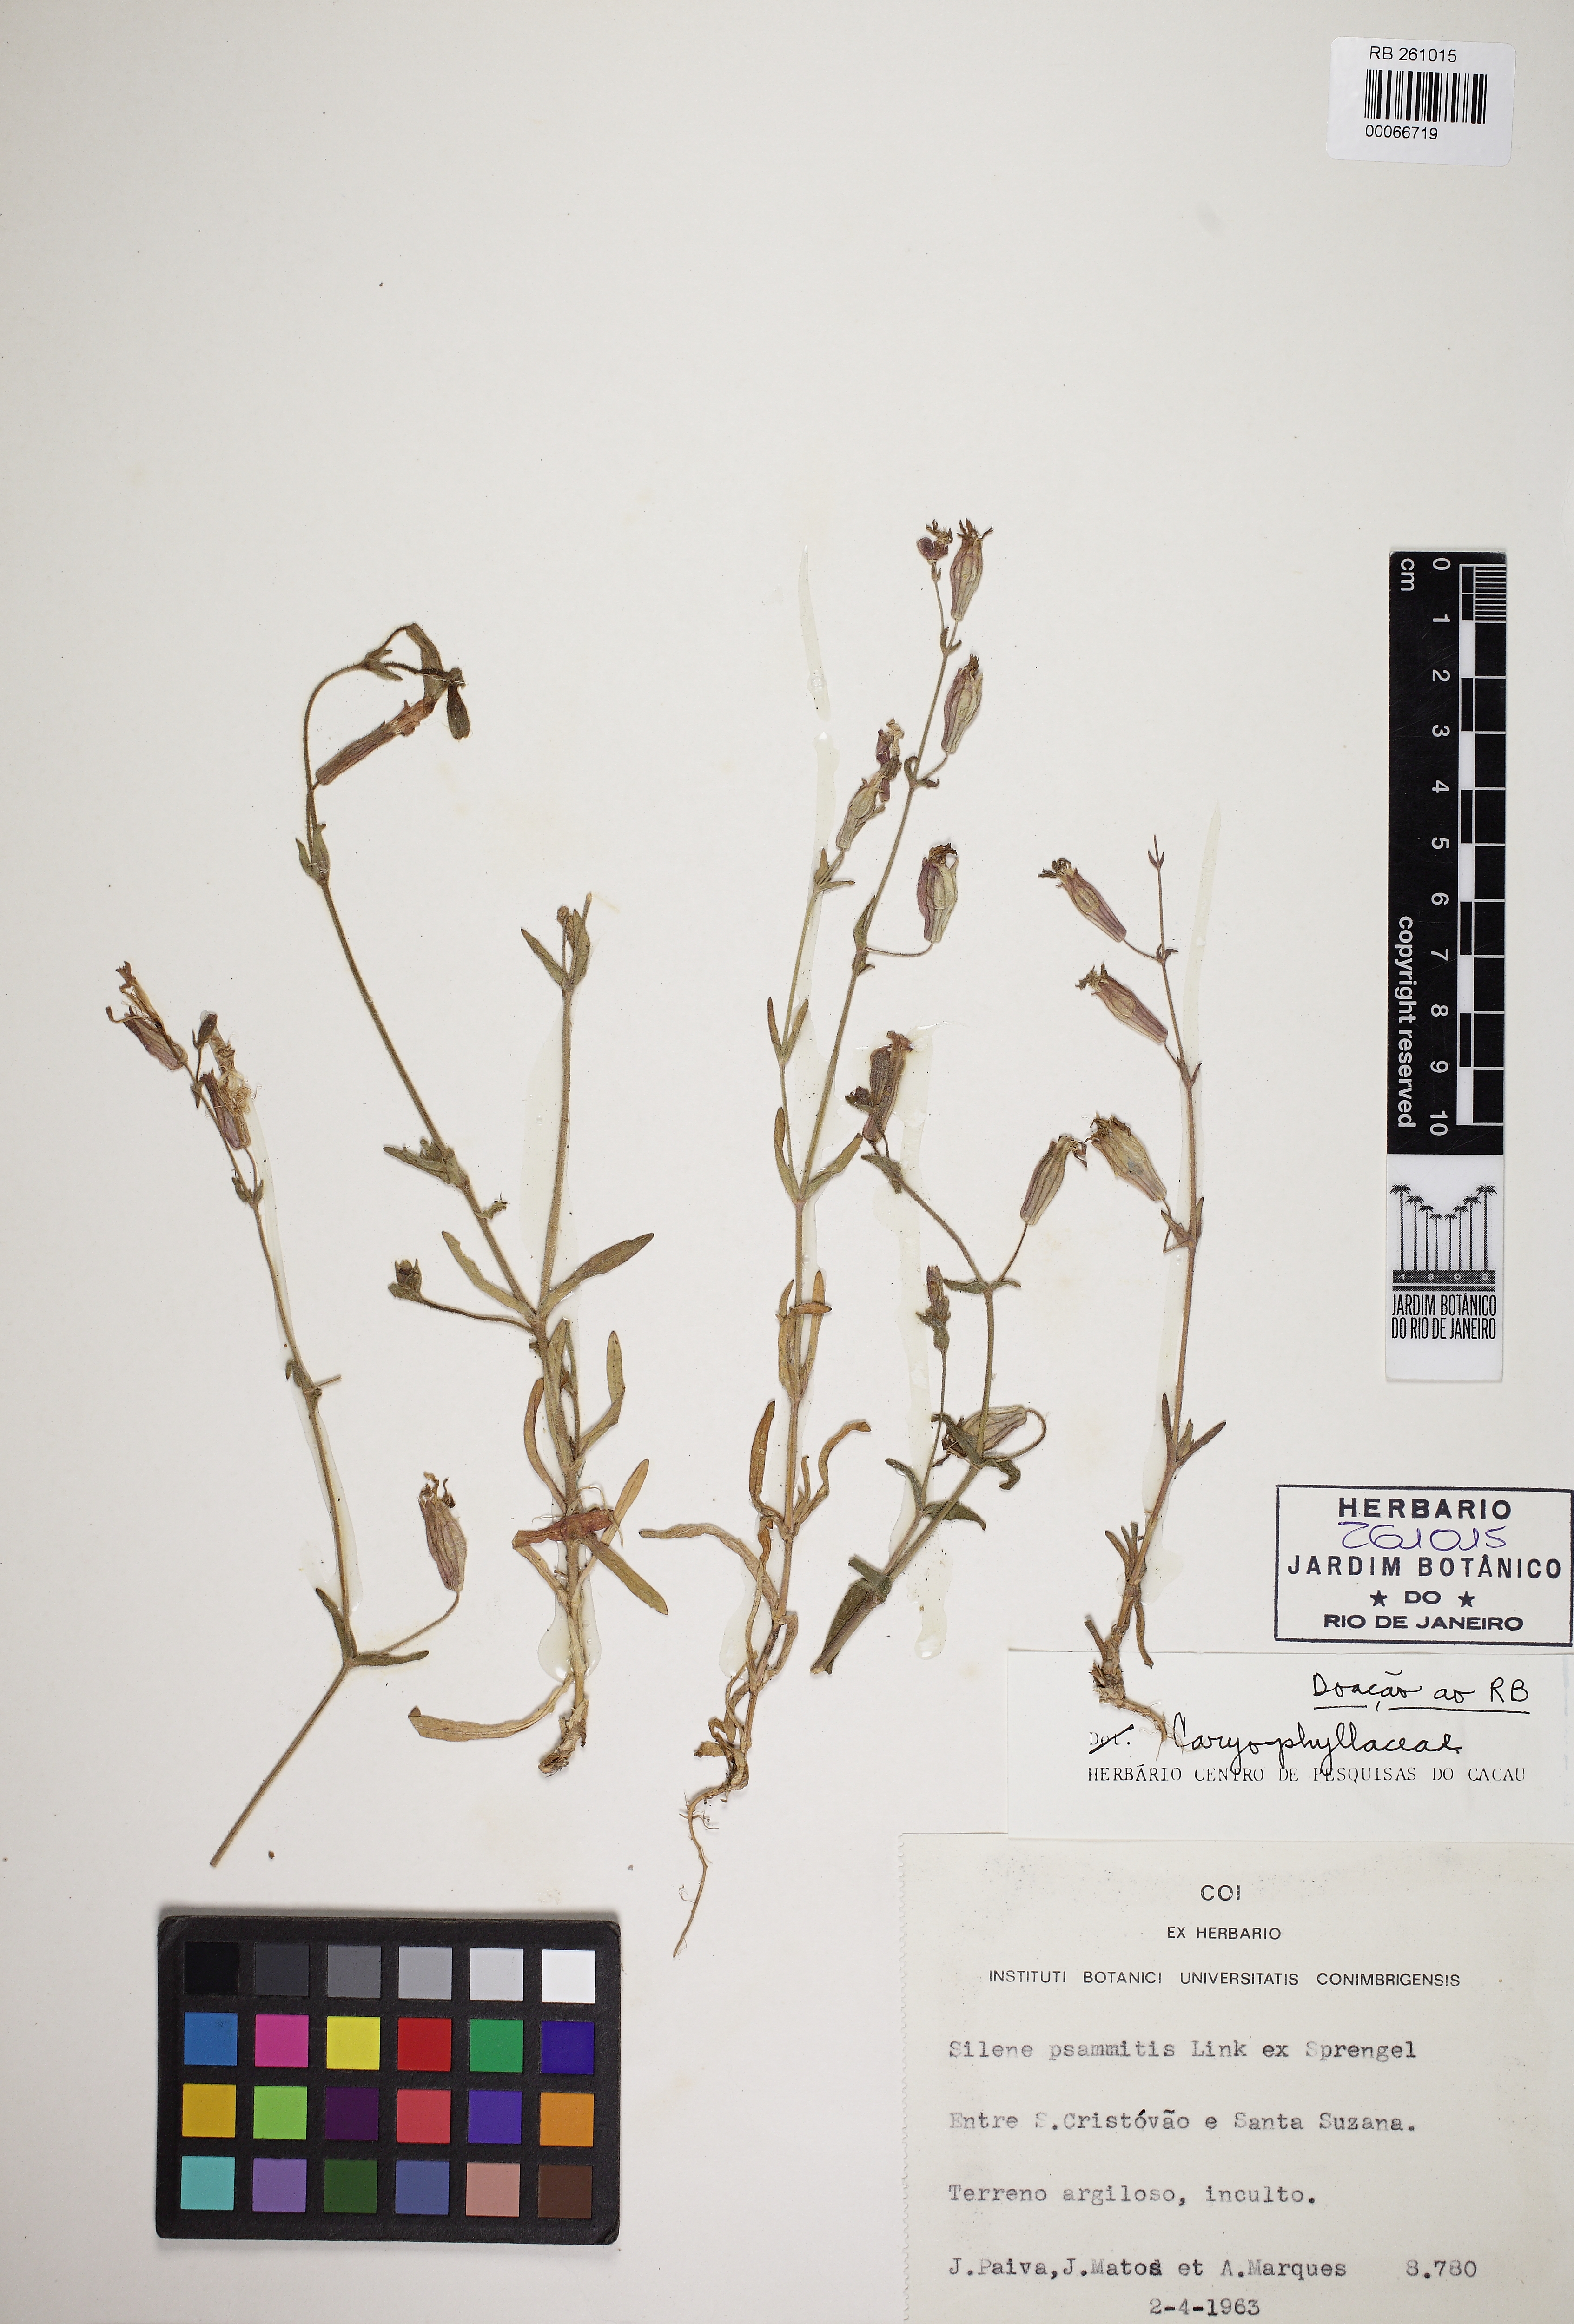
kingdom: Plantae
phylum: Tracheophyta
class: Magnoliopsida
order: Caryophyllales
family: Caryophyllaceae
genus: Silene
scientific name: Silene psammitis
